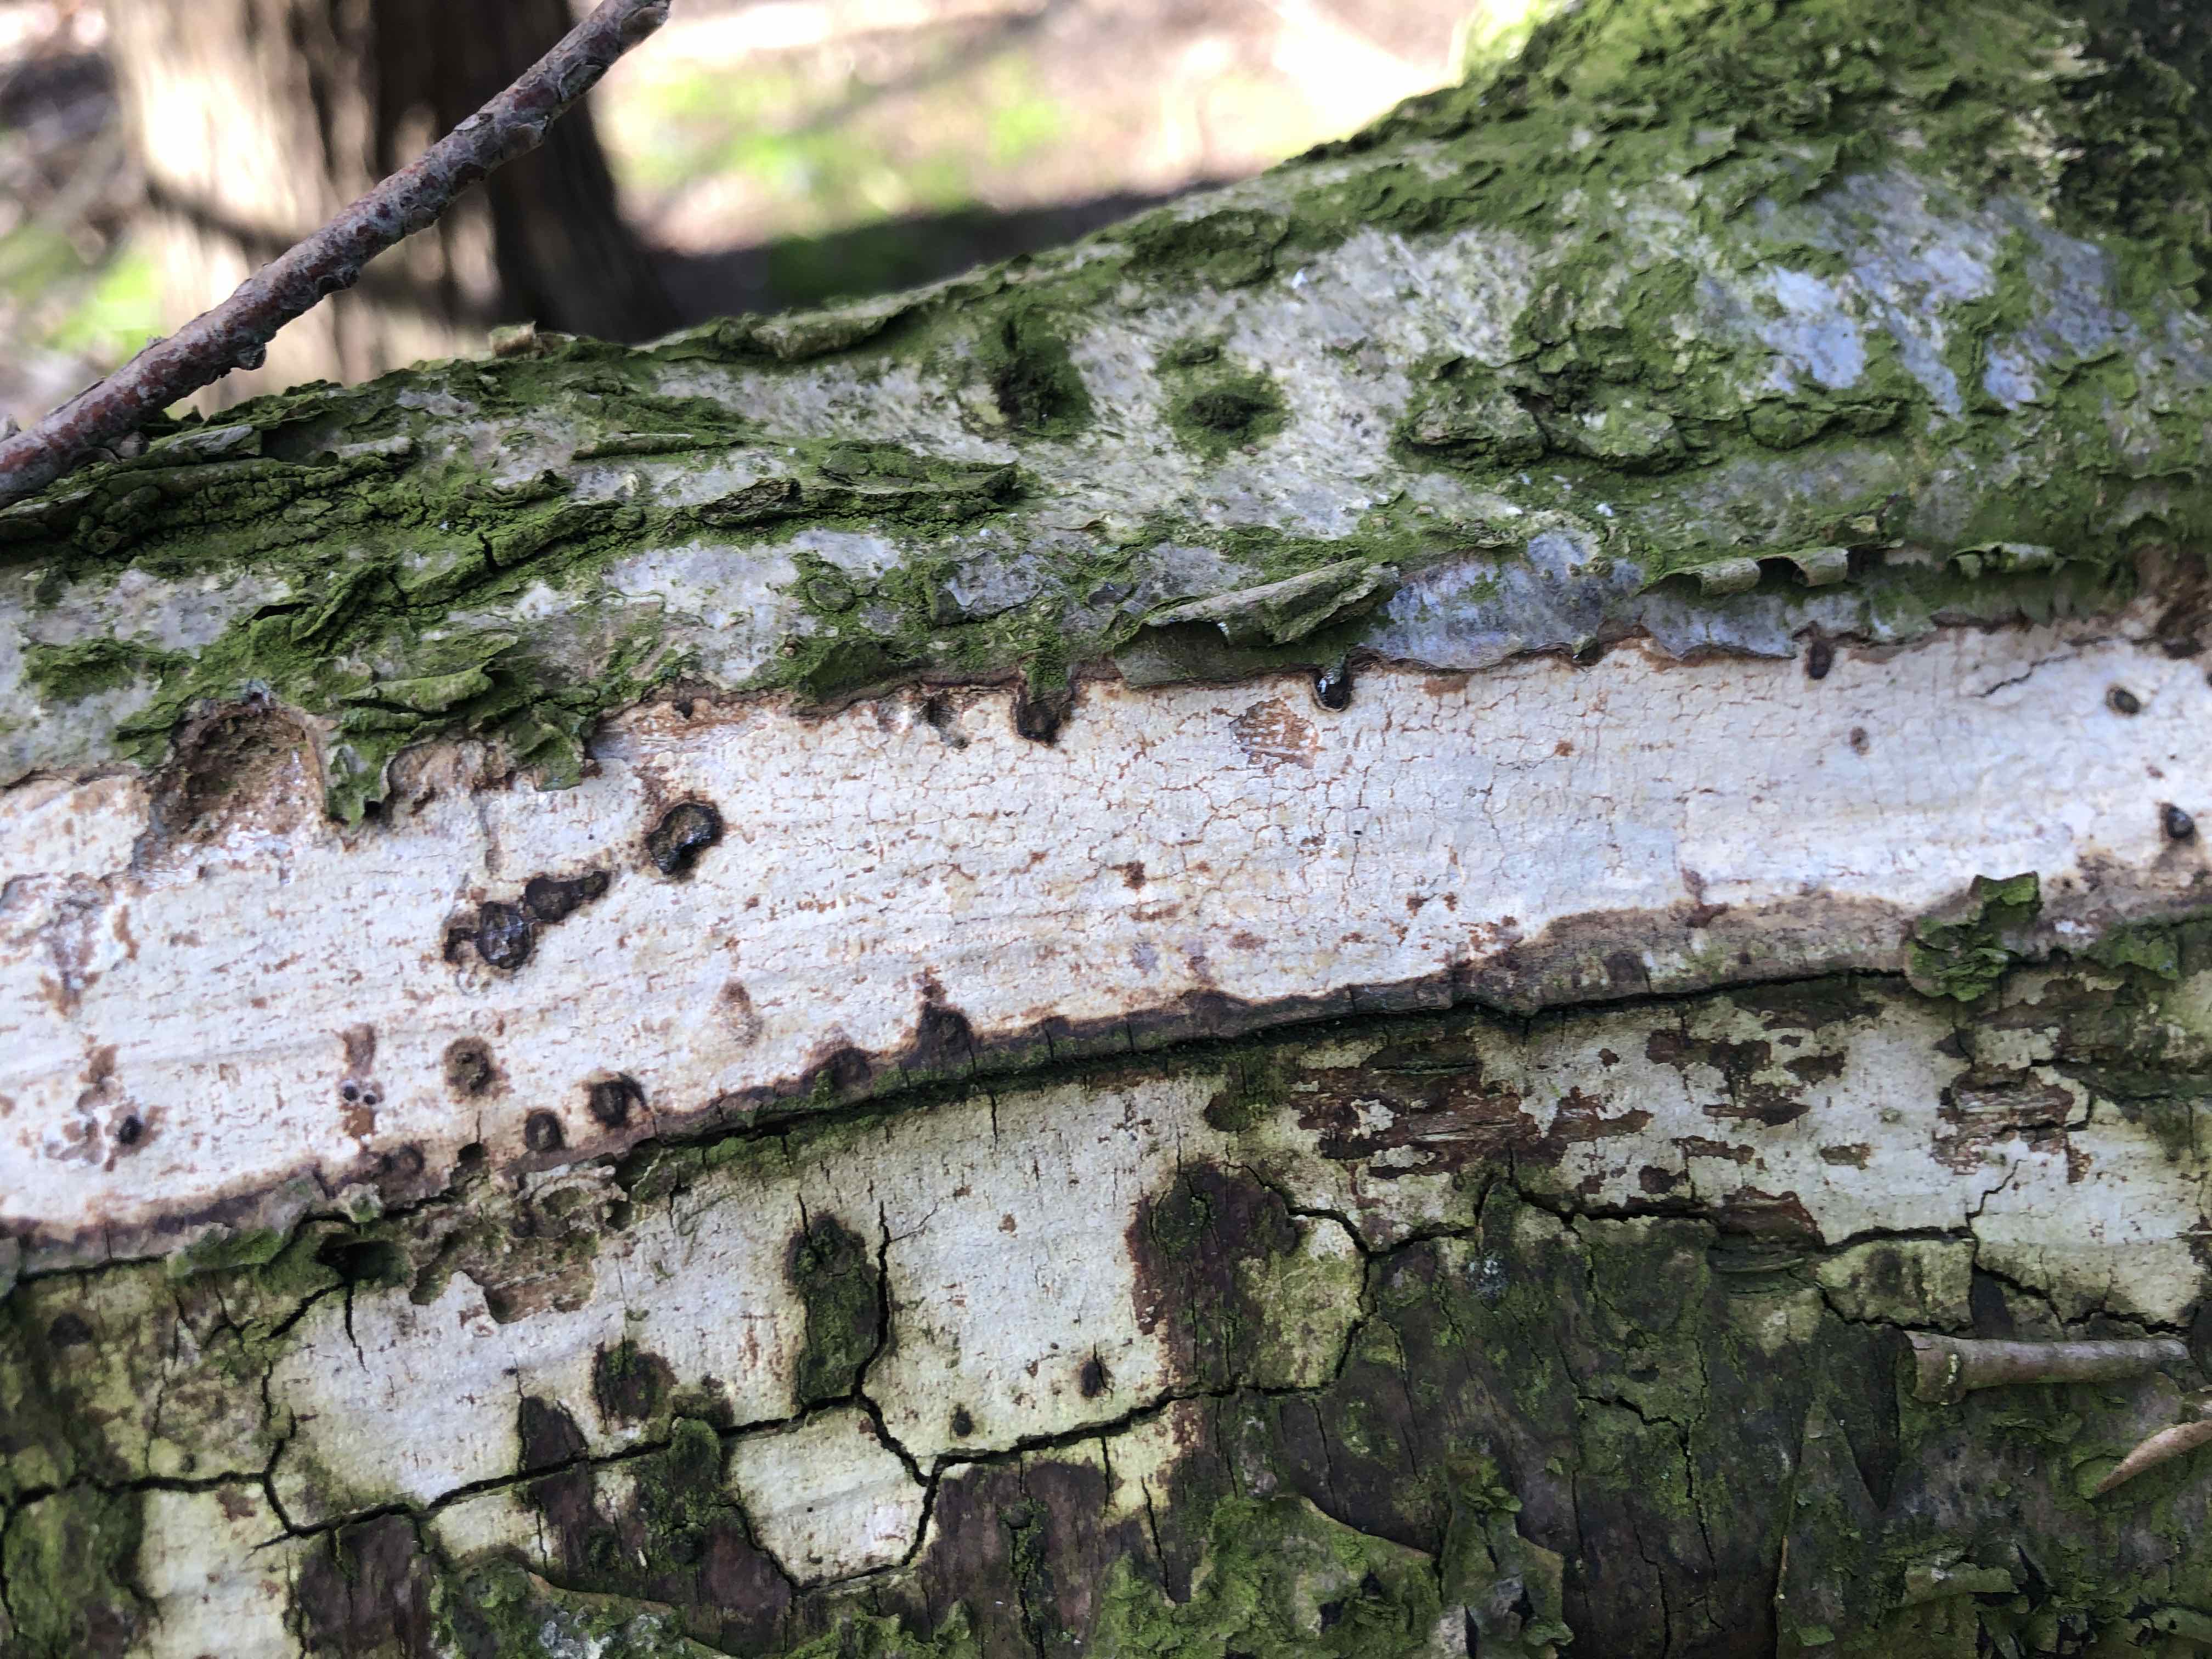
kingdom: Fungi
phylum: Basidiomycota
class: Agaricomycetes
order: Corticiales
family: Vuilleminiaceae
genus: Vuilleminia
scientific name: Vuilleminia coryli
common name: hassel-barksprænger
